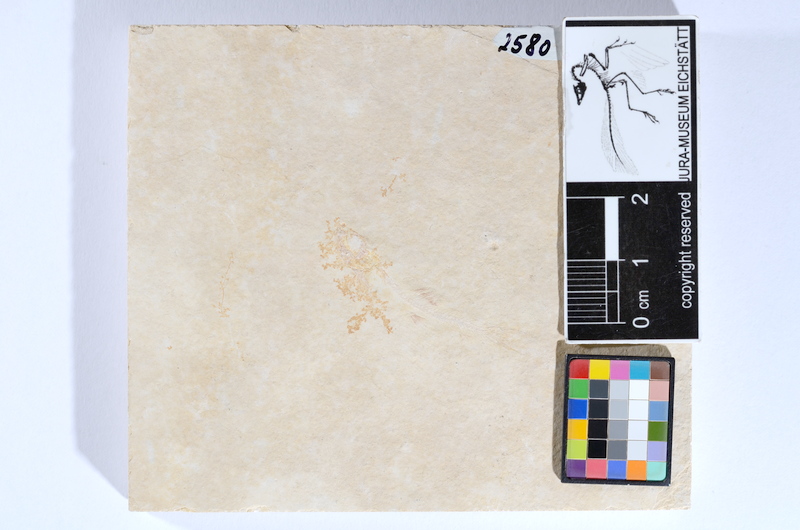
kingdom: Animalia
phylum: Chordata
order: Salmoniformes
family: Orthogonikleithridae
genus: Leptolepides
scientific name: Leptolepides sprattiformis
